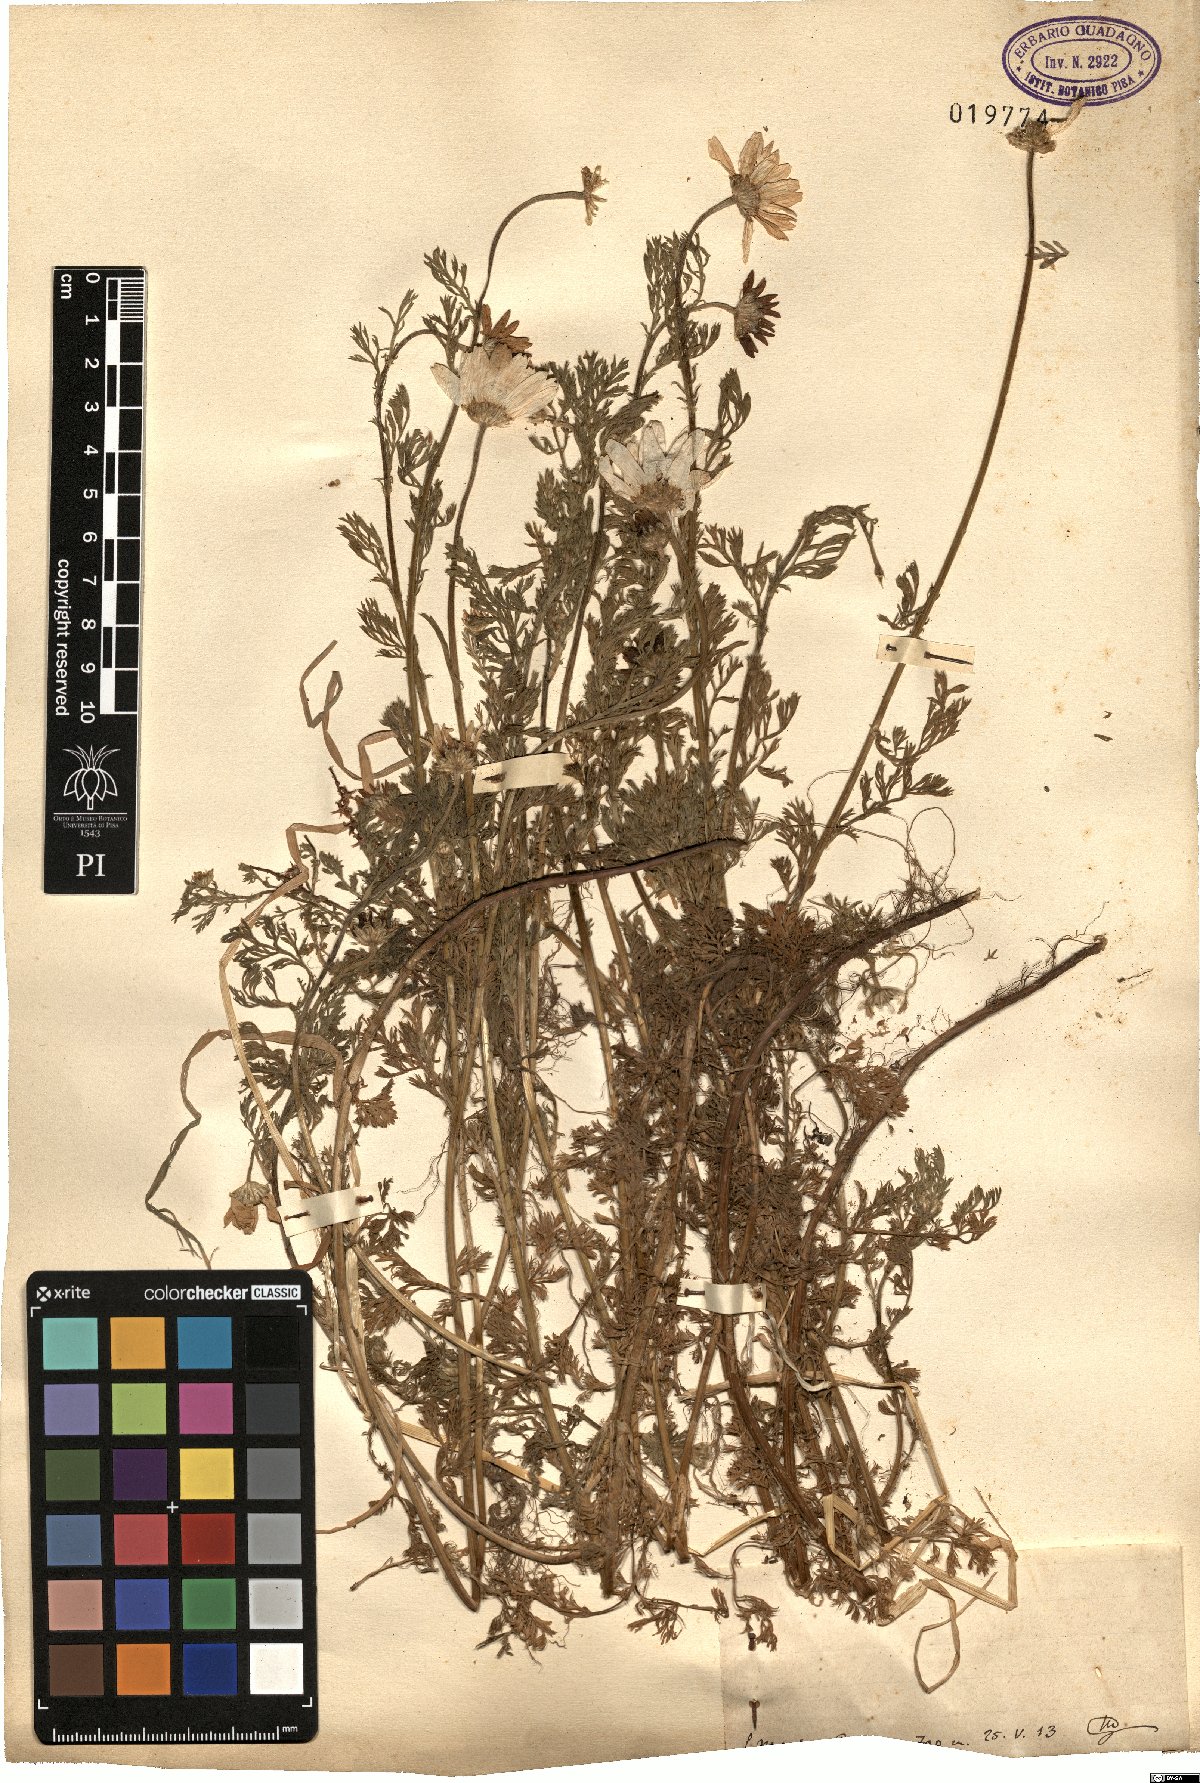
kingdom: Plantae
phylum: Tracheophyta
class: Magnoliopsida
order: Asterales
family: Asteraceae
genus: Anthemis
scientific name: Anthemis
